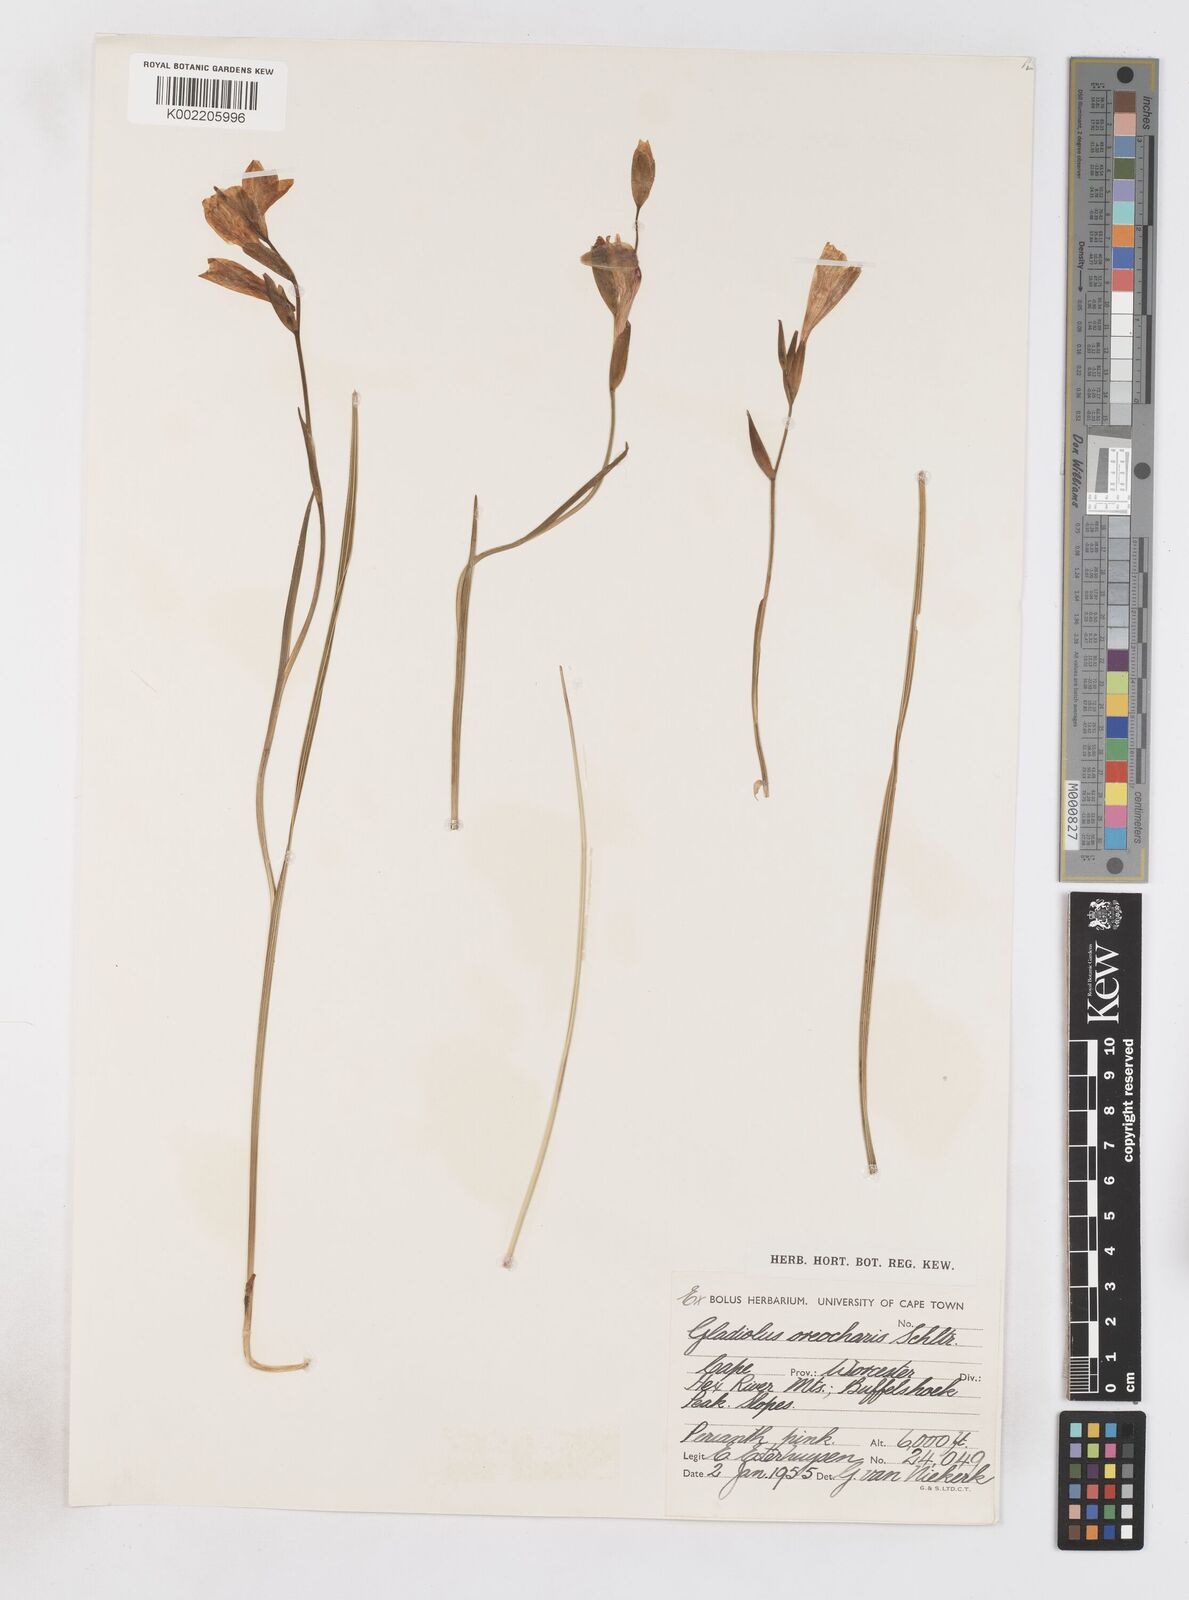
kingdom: Plantae
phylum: Tracheophyta
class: Liliopsida
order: Asparagales
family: Iridaceae
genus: Gladiolus
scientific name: Gladiolus oreocharis
